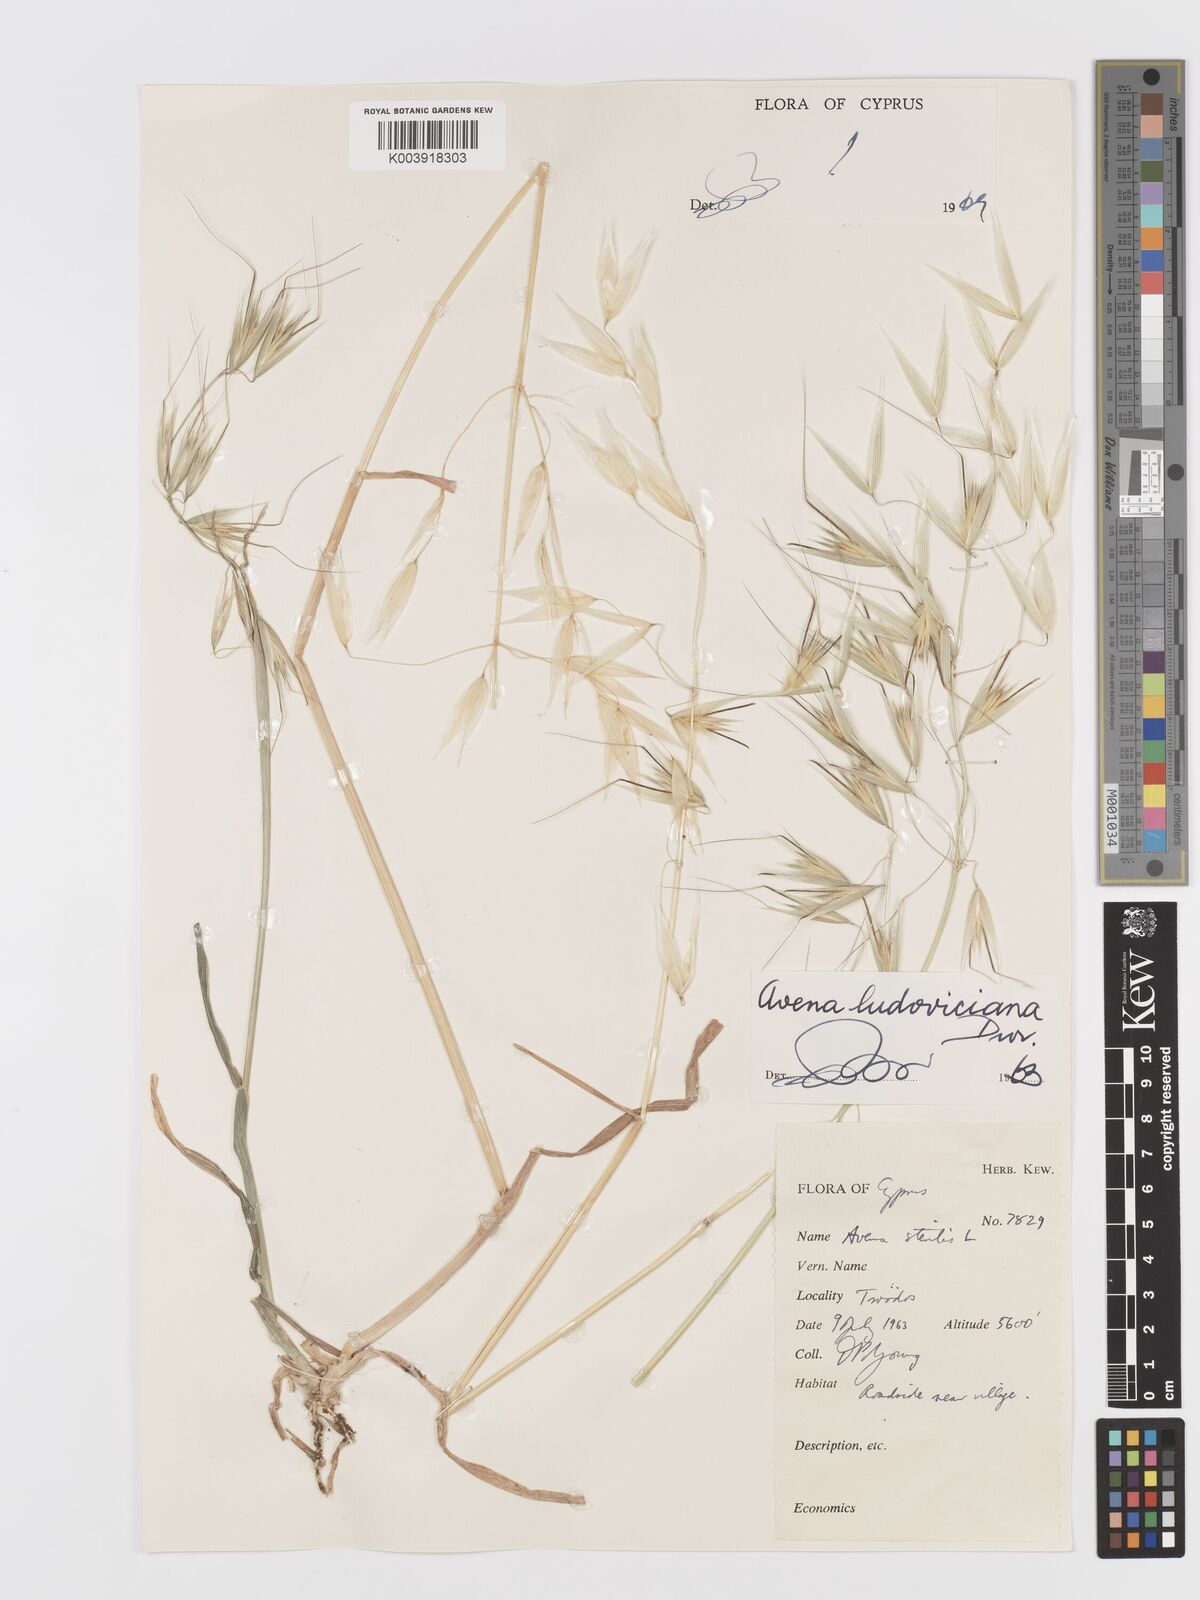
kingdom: Plantae
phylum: Tracheophyta
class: Liliopsida
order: Poales
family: Poaceae
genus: Avena
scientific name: Avena sterilis
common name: Animated oat
